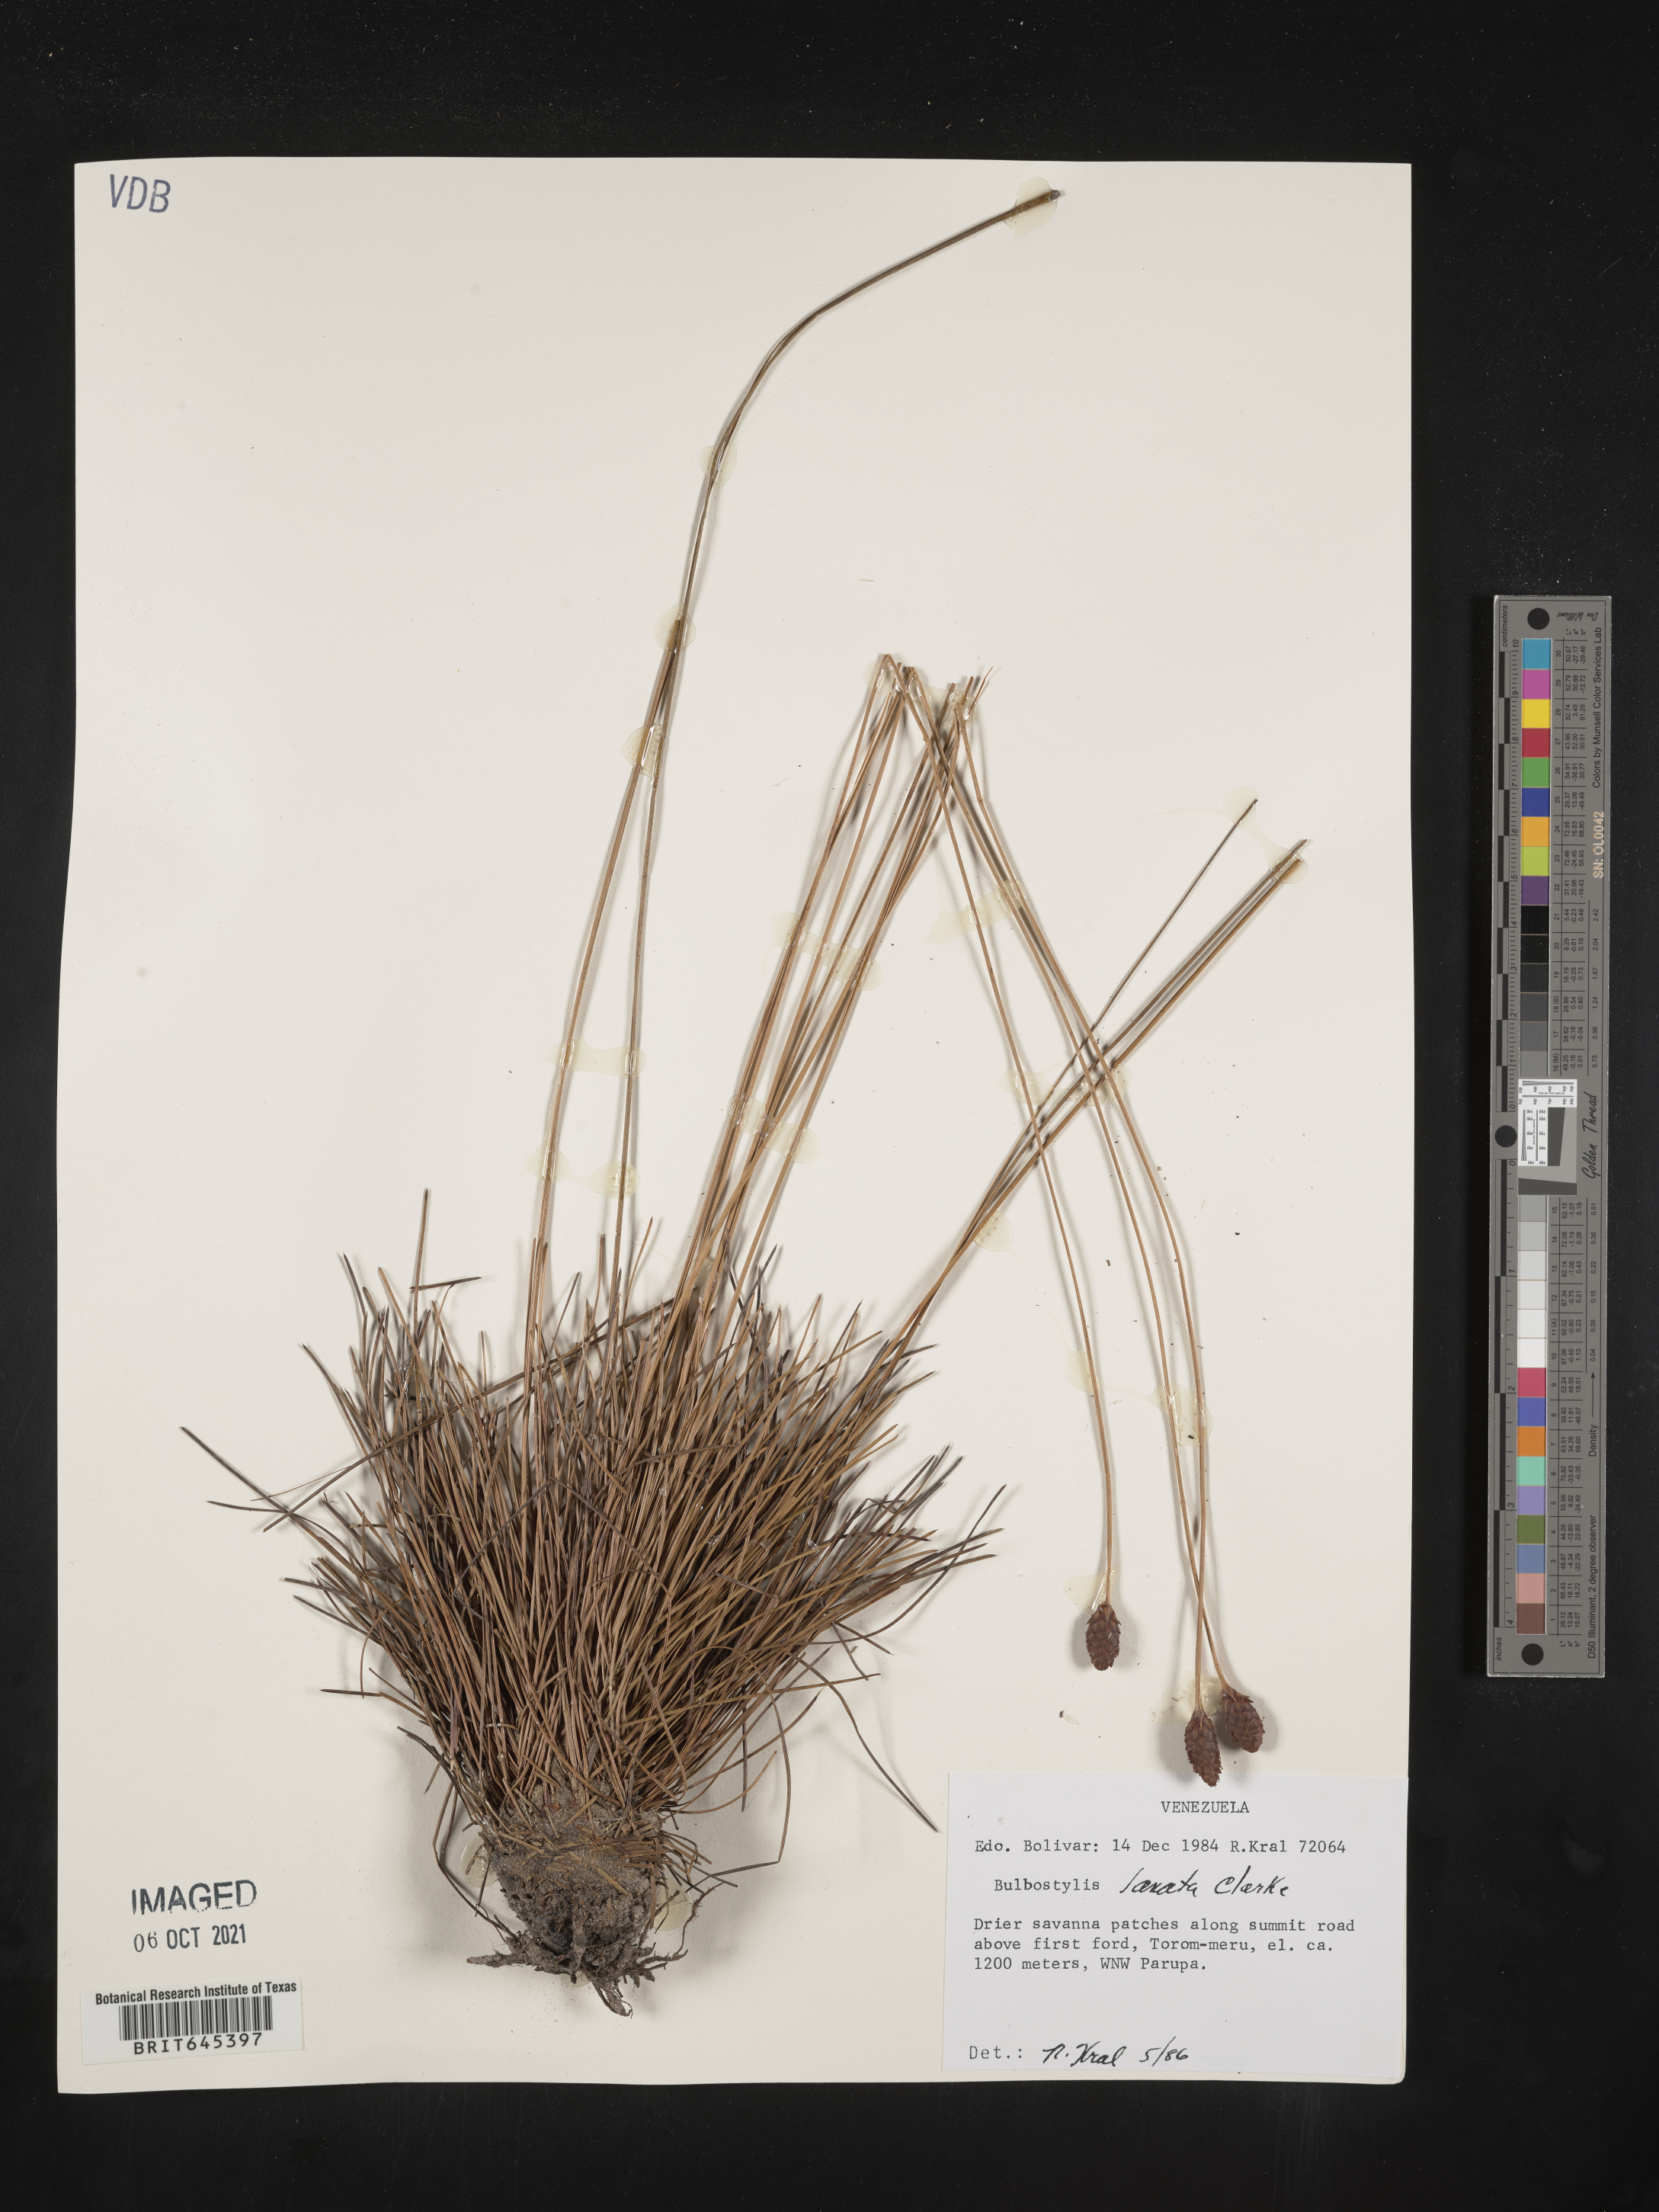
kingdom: Plantae
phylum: Tracheophyta
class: Liliopsida
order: Poales
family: Cyperaceae
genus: Bulbostylis
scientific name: Bulbostylis lanata
